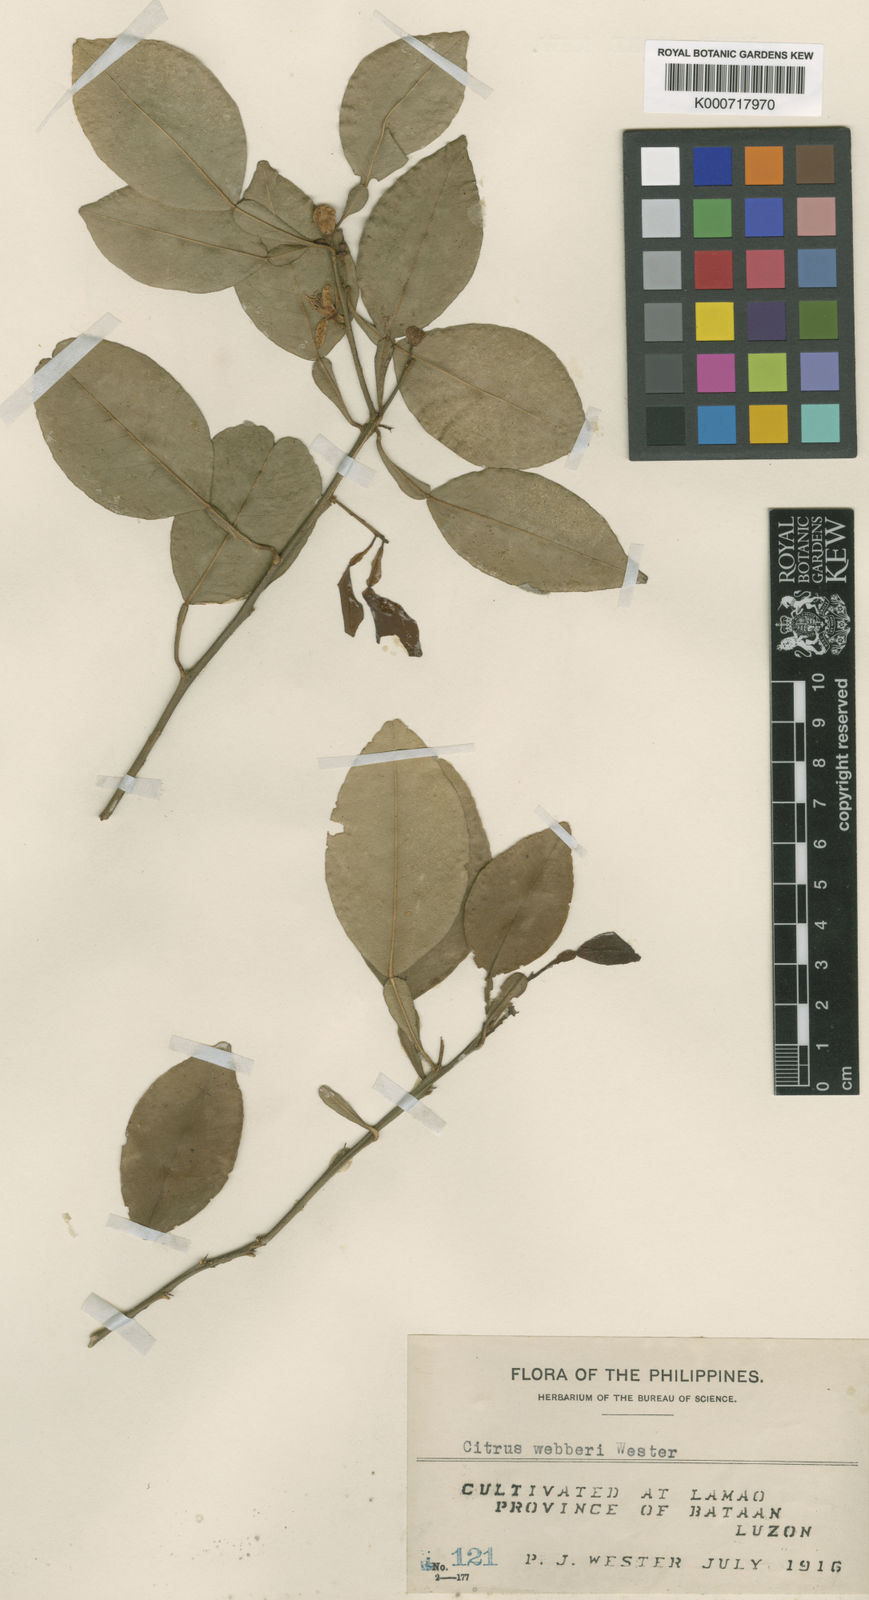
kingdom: Plantae
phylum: Tracheophyta
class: Magnoliopsida
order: Sapindales
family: Rutaceae
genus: Citrus
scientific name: Citrus webberi
